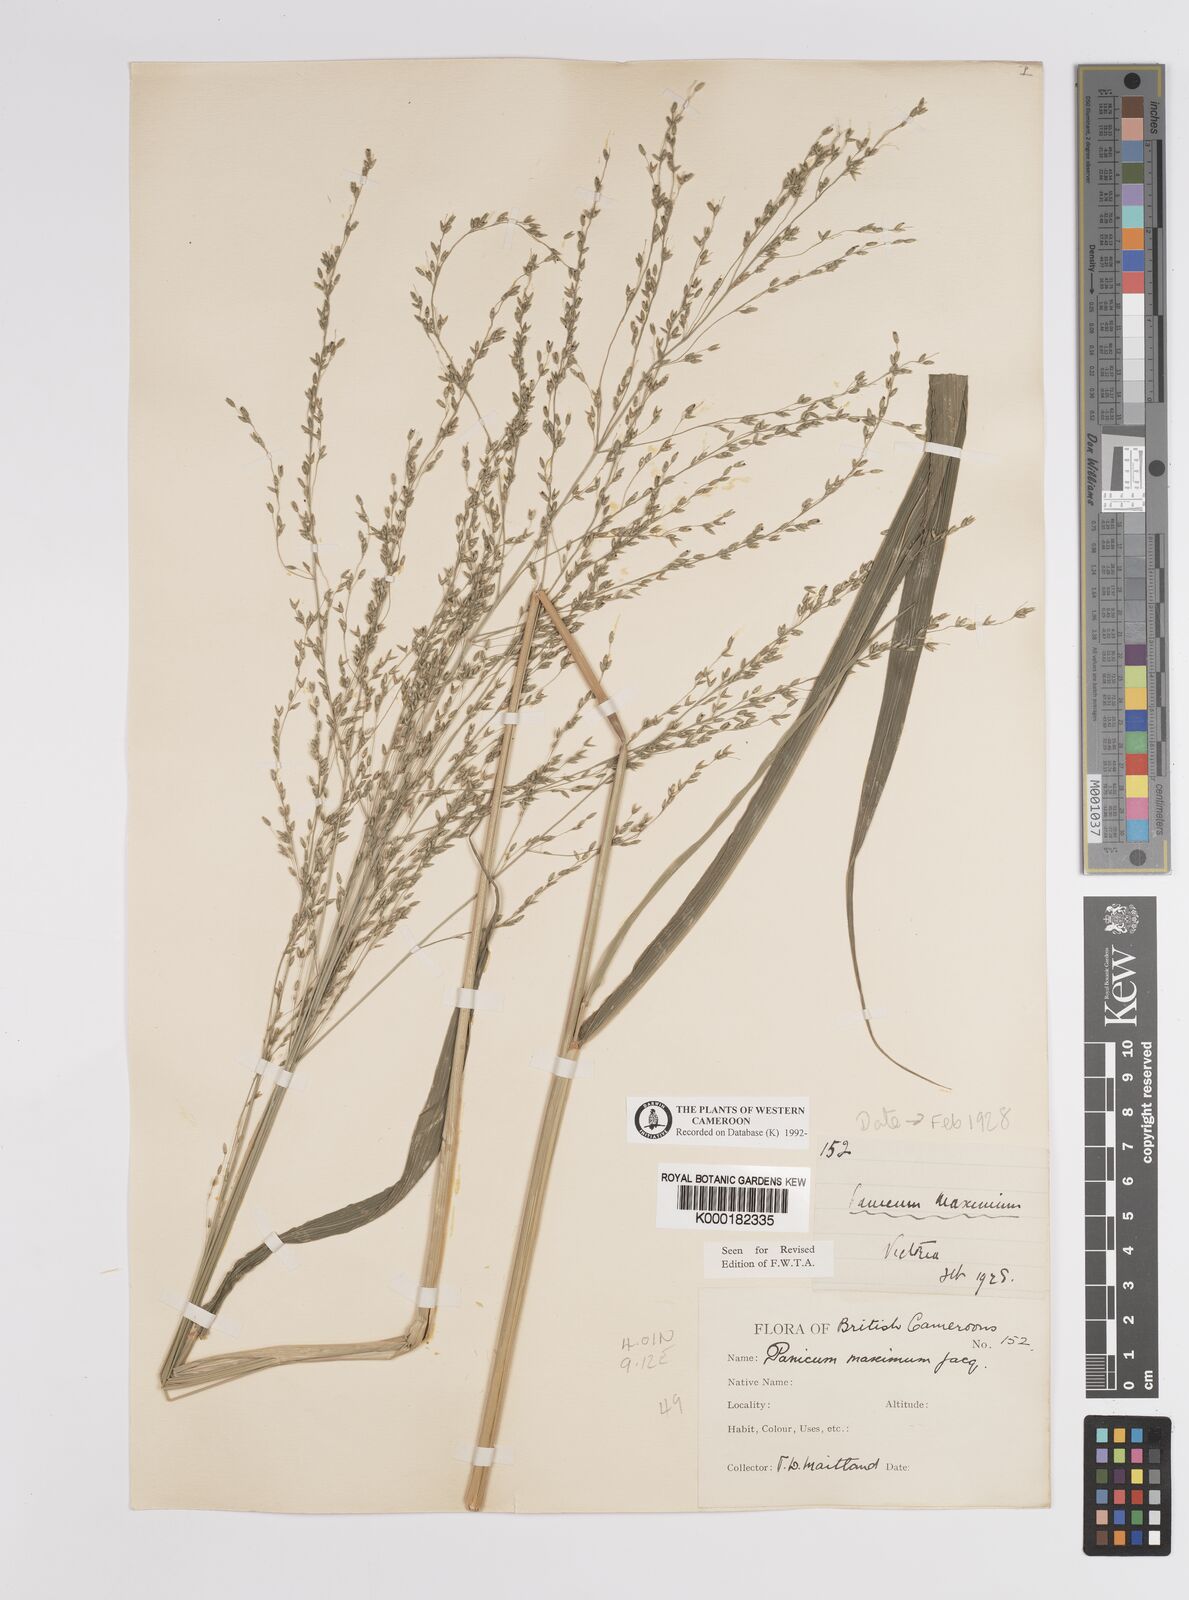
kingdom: Plantae
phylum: Tracheophyta
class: Liliopsida
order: Poales
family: Poaceae
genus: Megathyrsus
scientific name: Megathyrsus maximus
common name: Guineagrass
